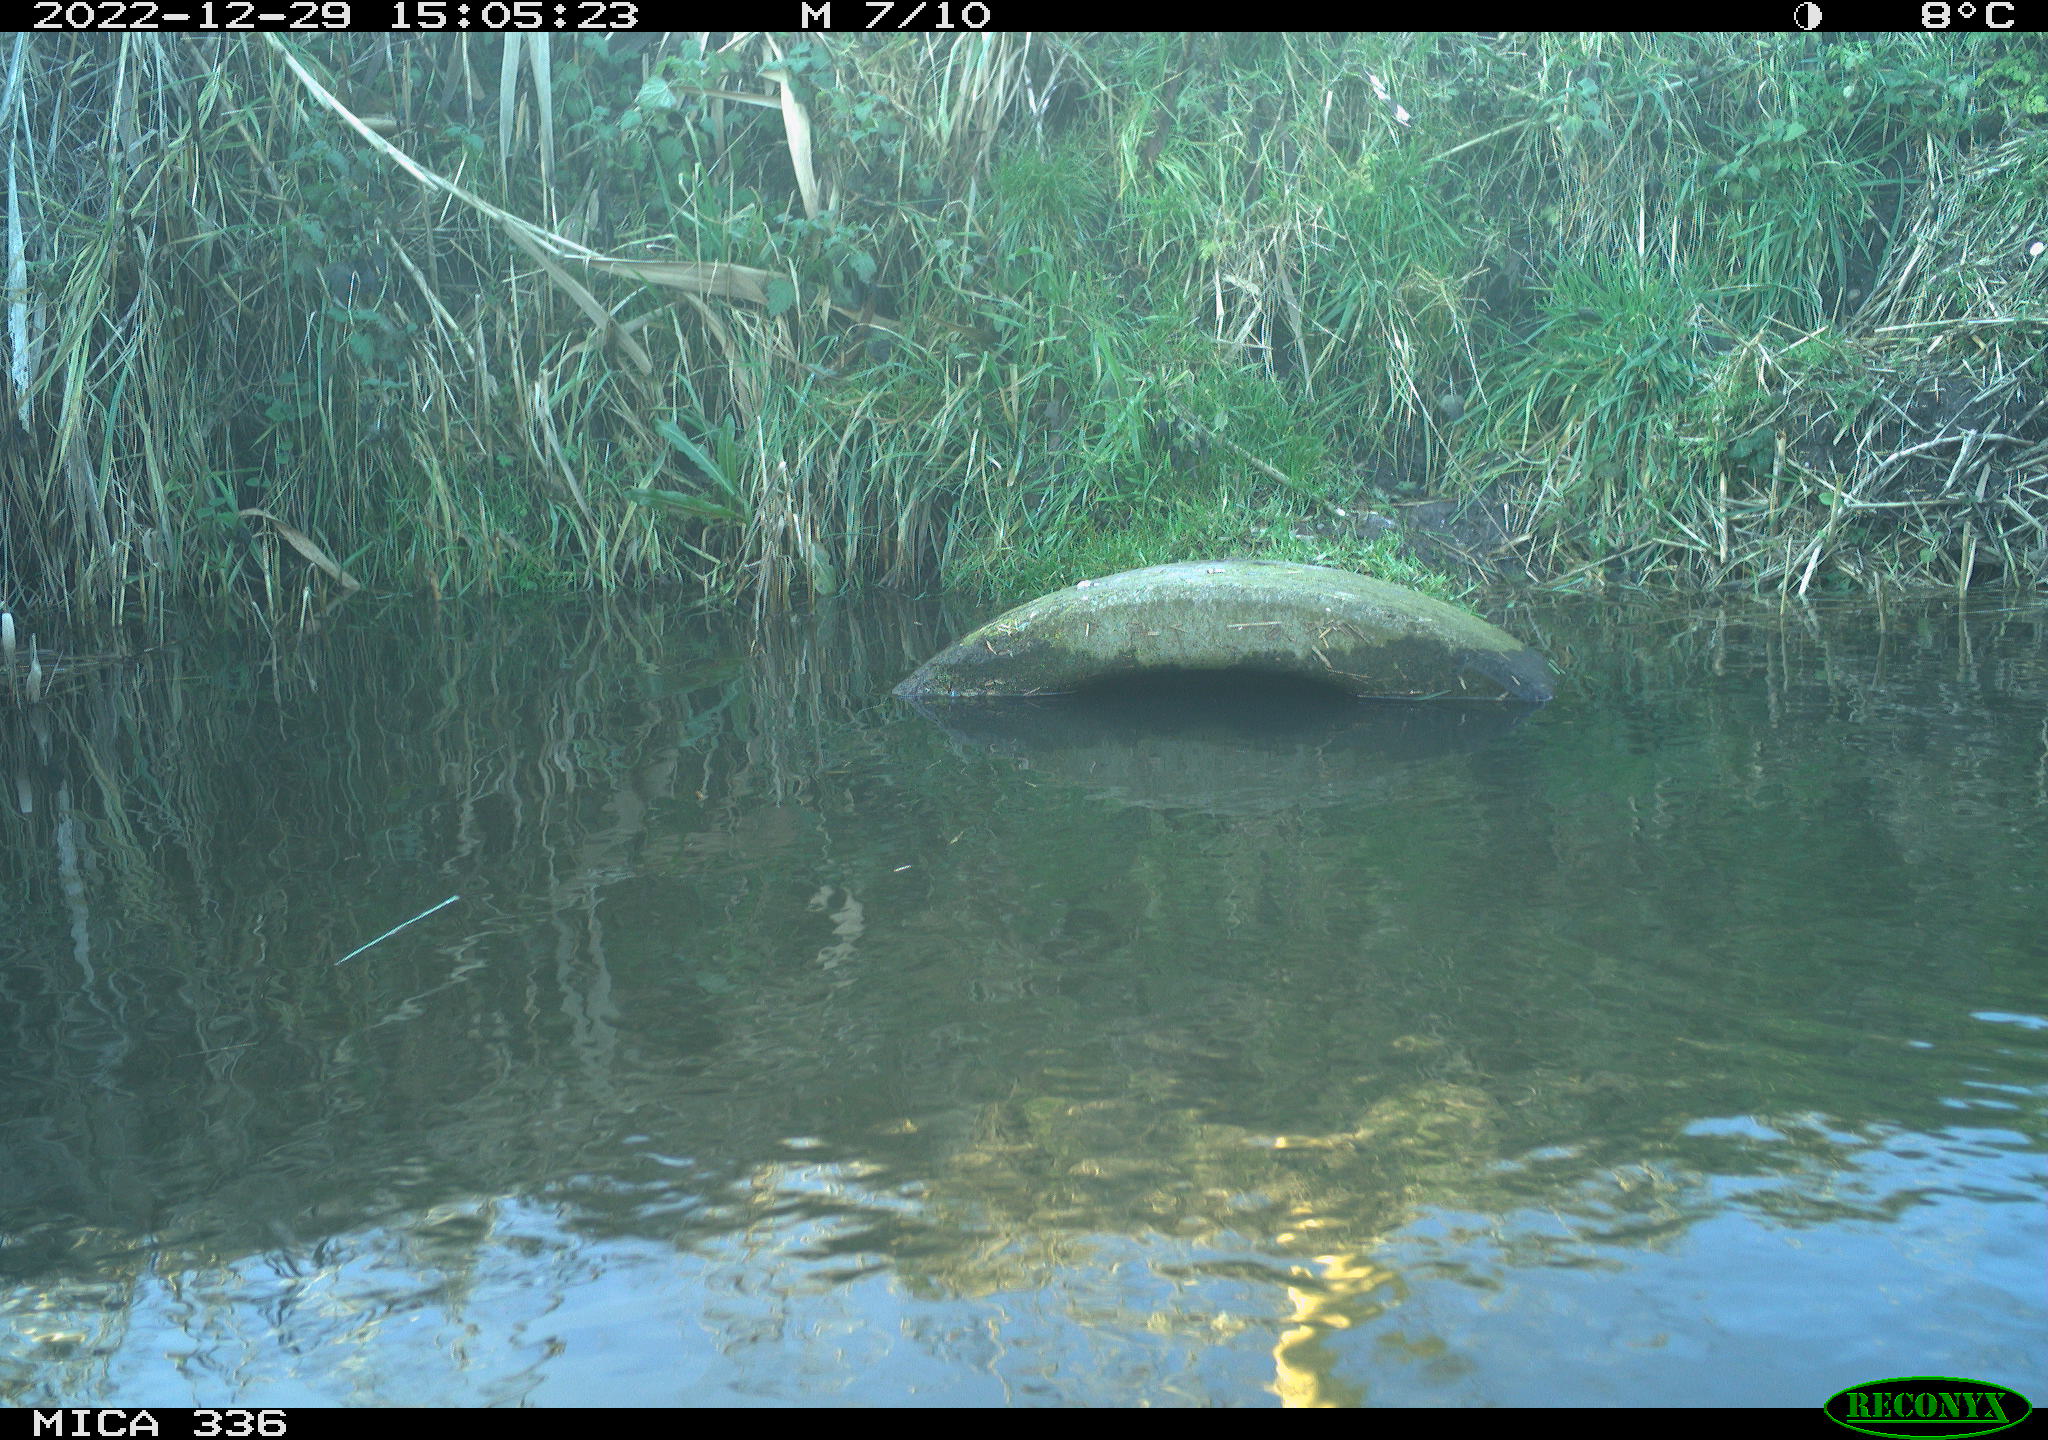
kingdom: Animalia
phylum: Chordata
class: Aves
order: Gruiformes
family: Rallidae
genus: Gallinula
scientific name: Gallinula chloropus
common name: Common moorhen
